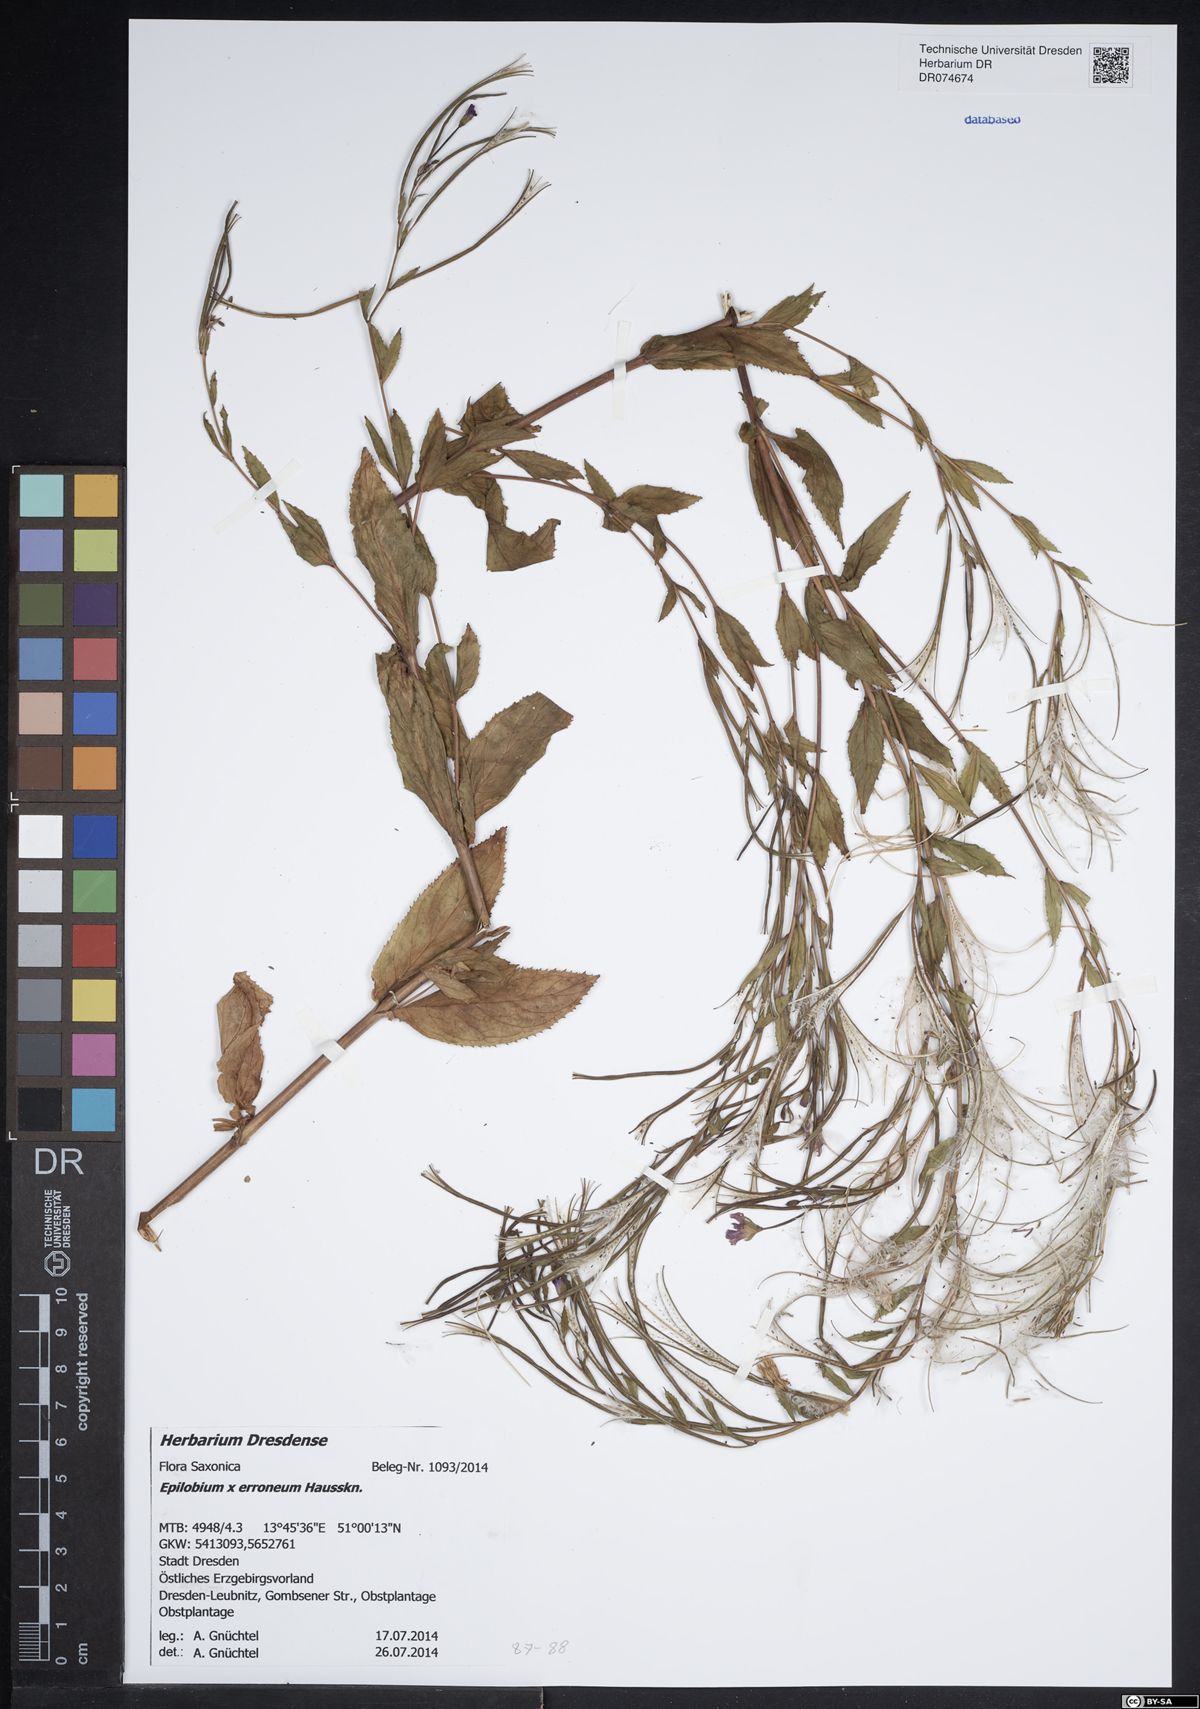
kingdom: Plantae
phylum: Tracheophyta
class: Magnoliopsida
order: Myrtales
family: Onagraceae
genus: Epilobium
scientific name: Epilobium
